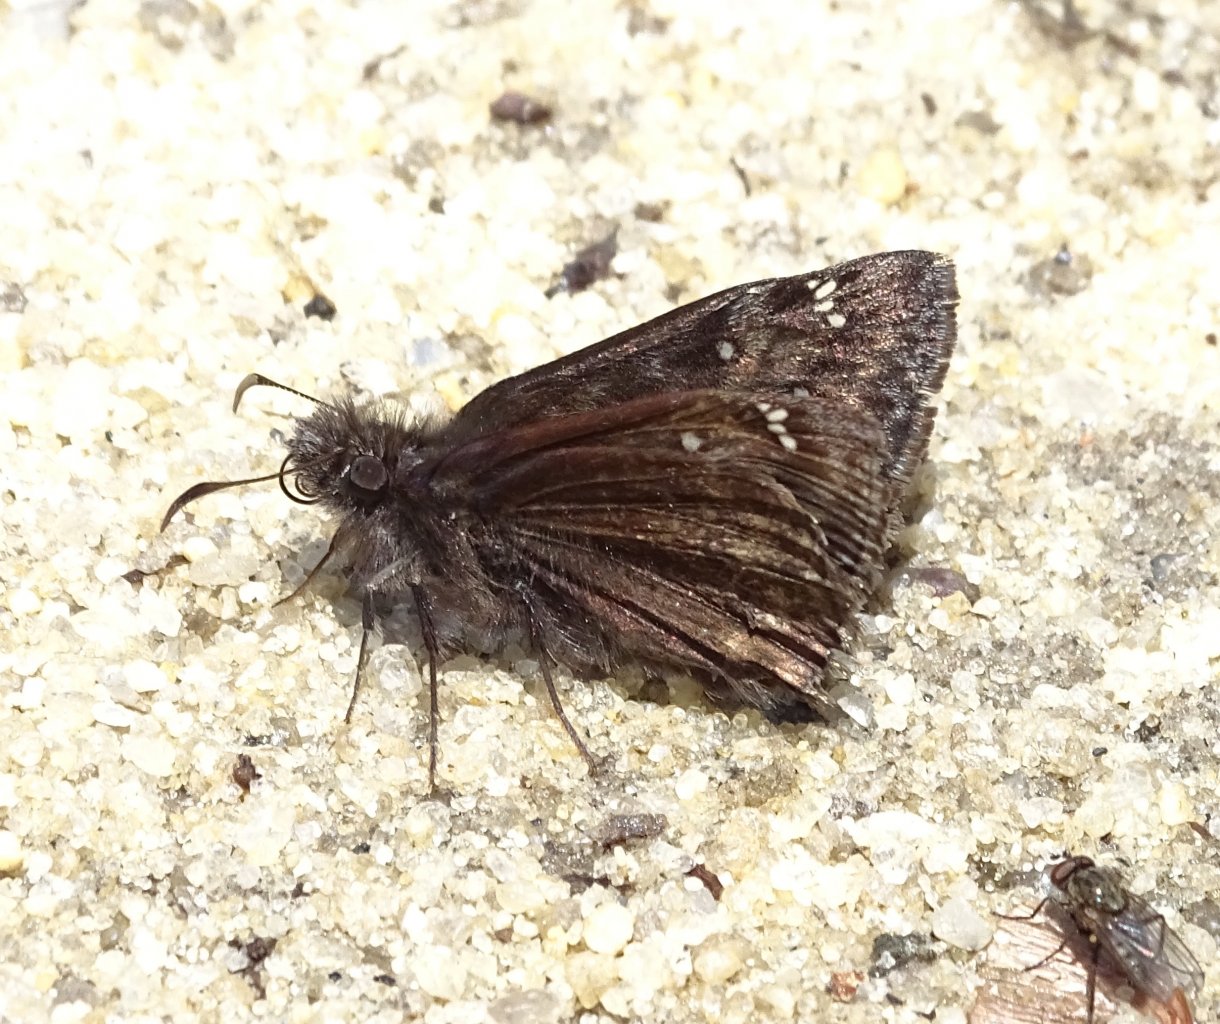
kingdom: Animalia
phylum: Arthropoda
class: Insecta
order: Lepidoptera
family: Hesperiidae
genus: Gesta
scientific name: Gesta
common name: Horace's Duskywing
